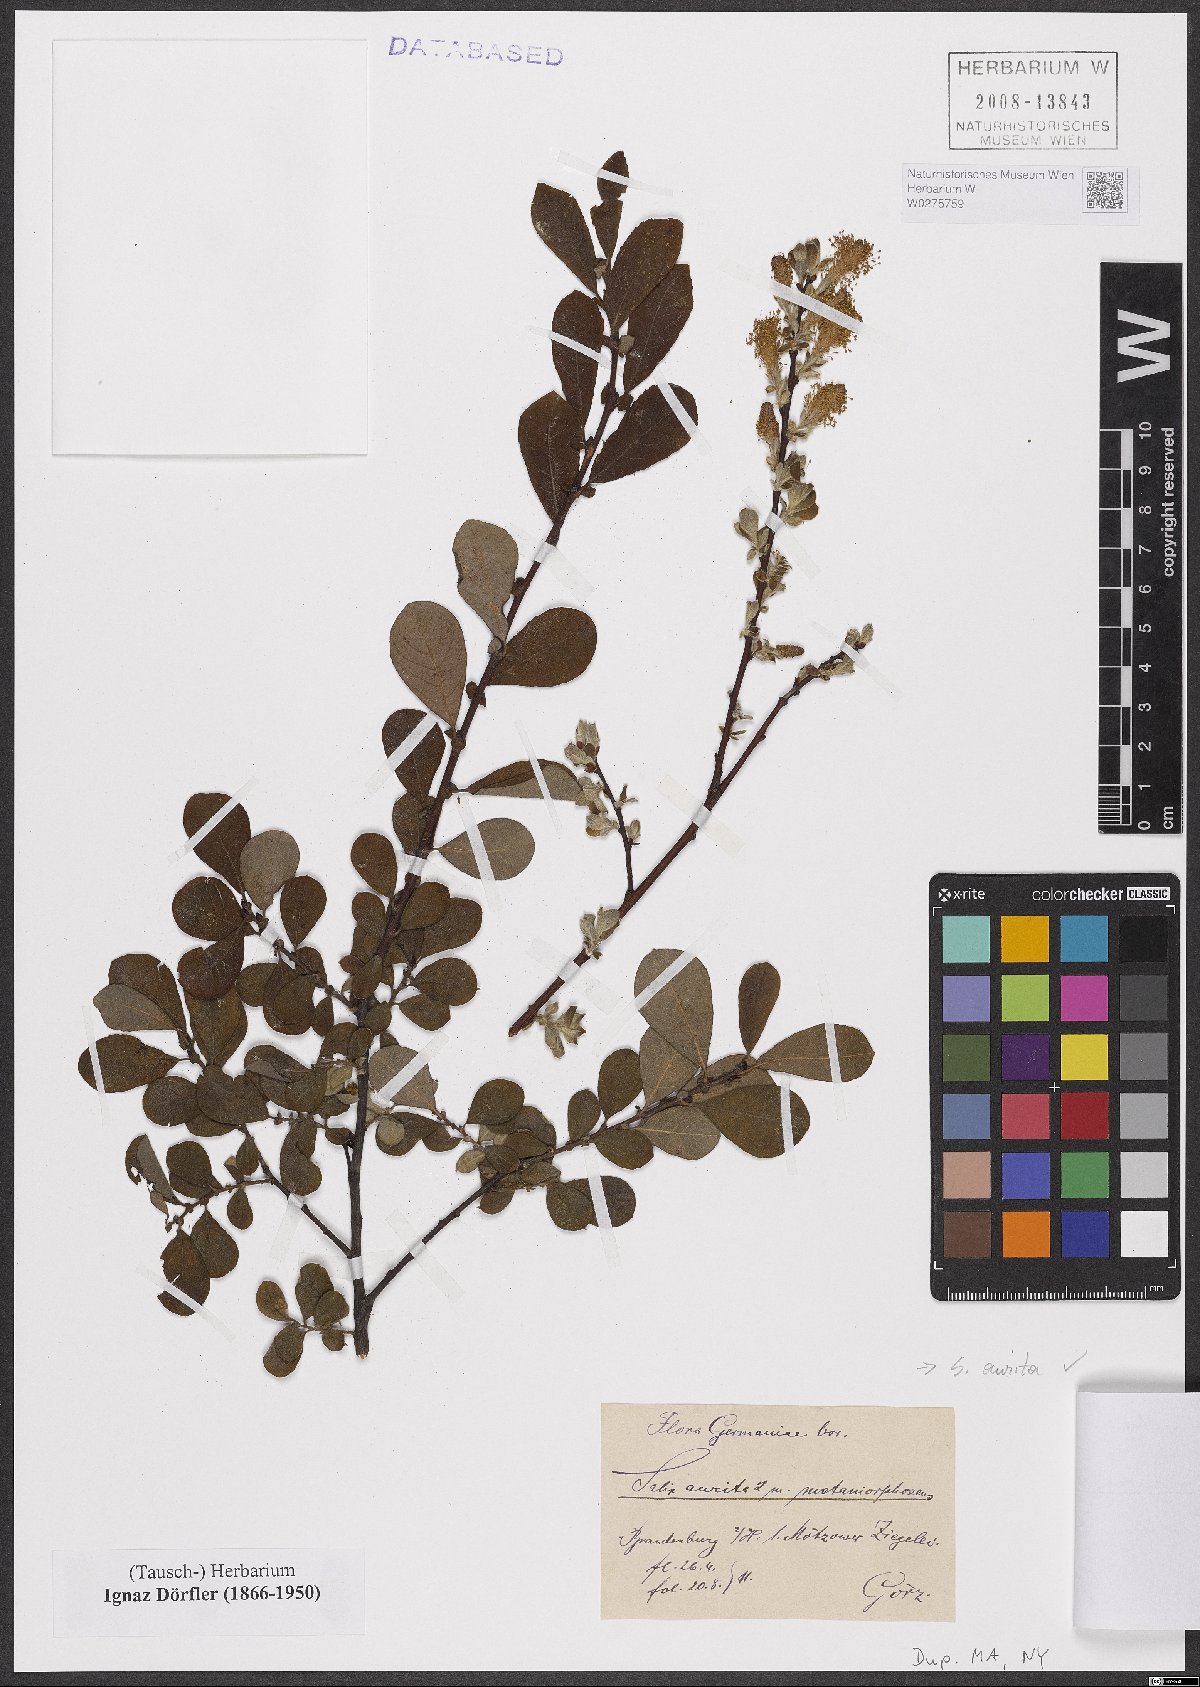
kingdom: Plantae
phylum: Tracheophyta
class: Magnoliopsida
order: Malpighiales
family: Salicaceae
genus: Salix
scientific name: Salix aurita
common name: Eared willow
